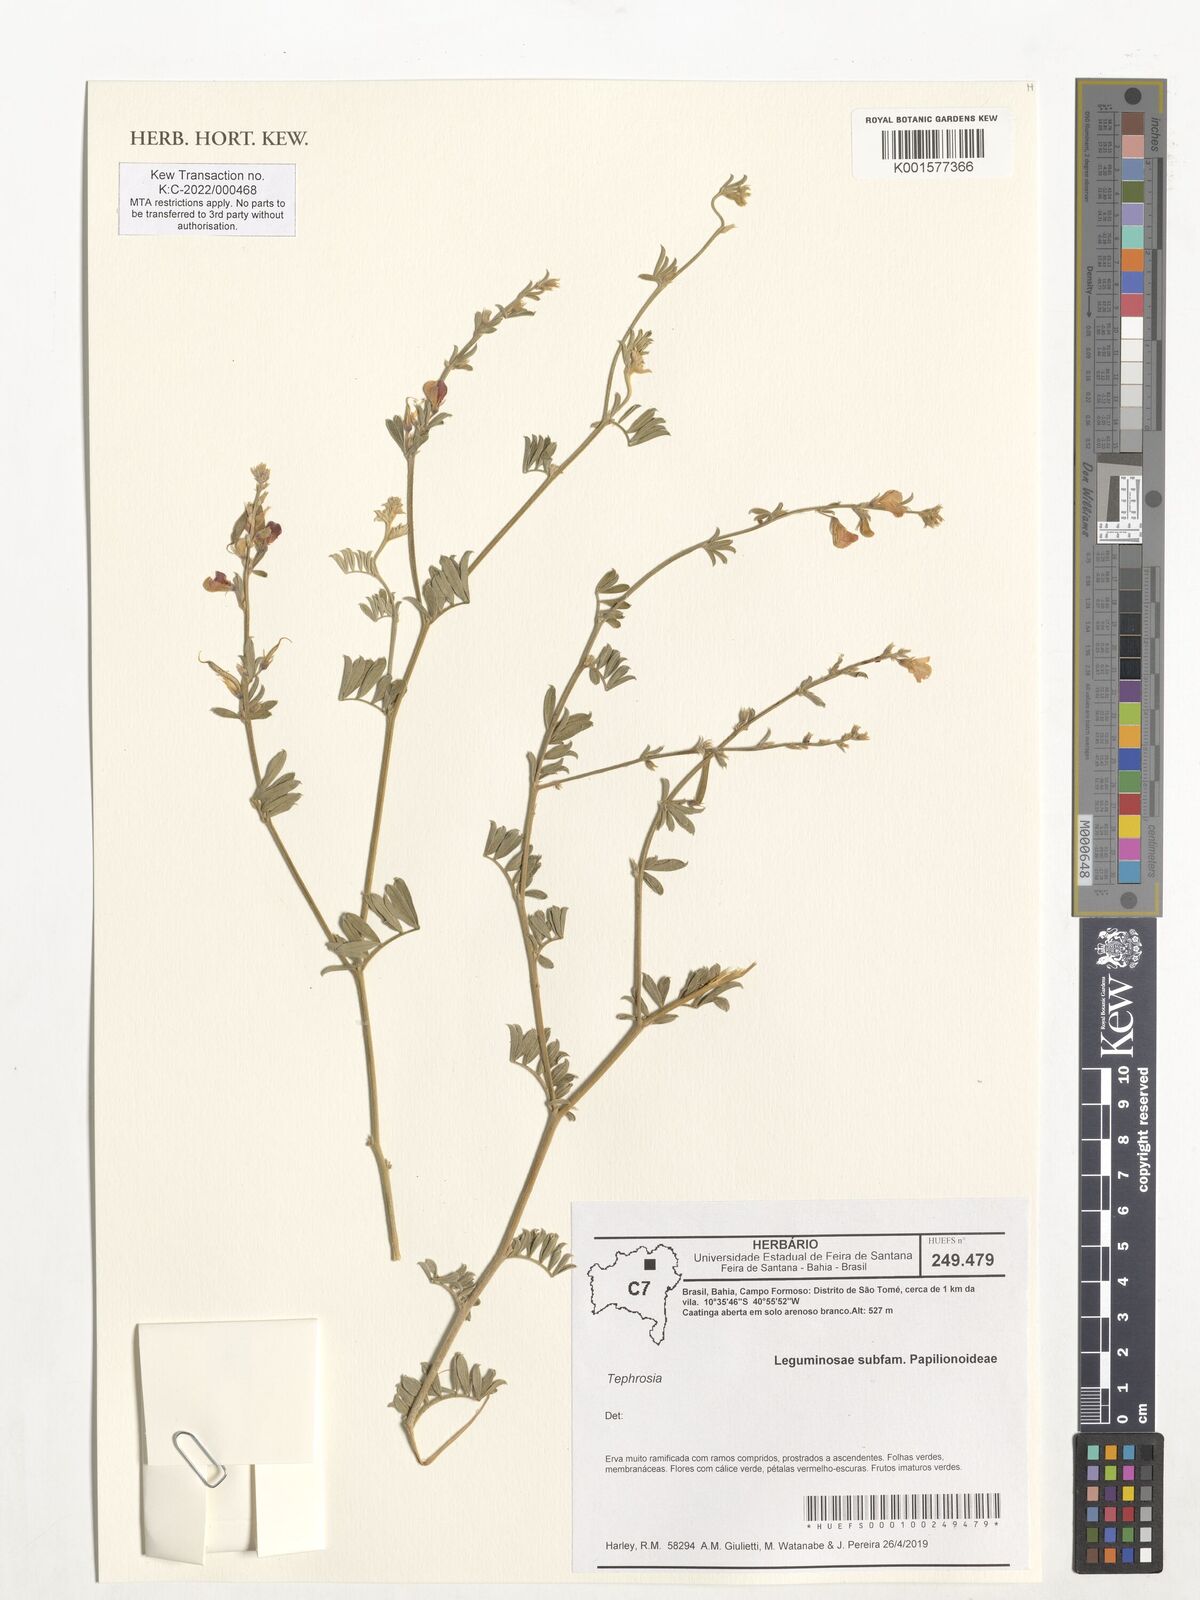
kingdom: Plantae
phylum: Tracheophyta
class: Magnoliopsida
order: Fabales
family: Fabaceae
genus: Tephrosia
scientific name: Tephrosia
